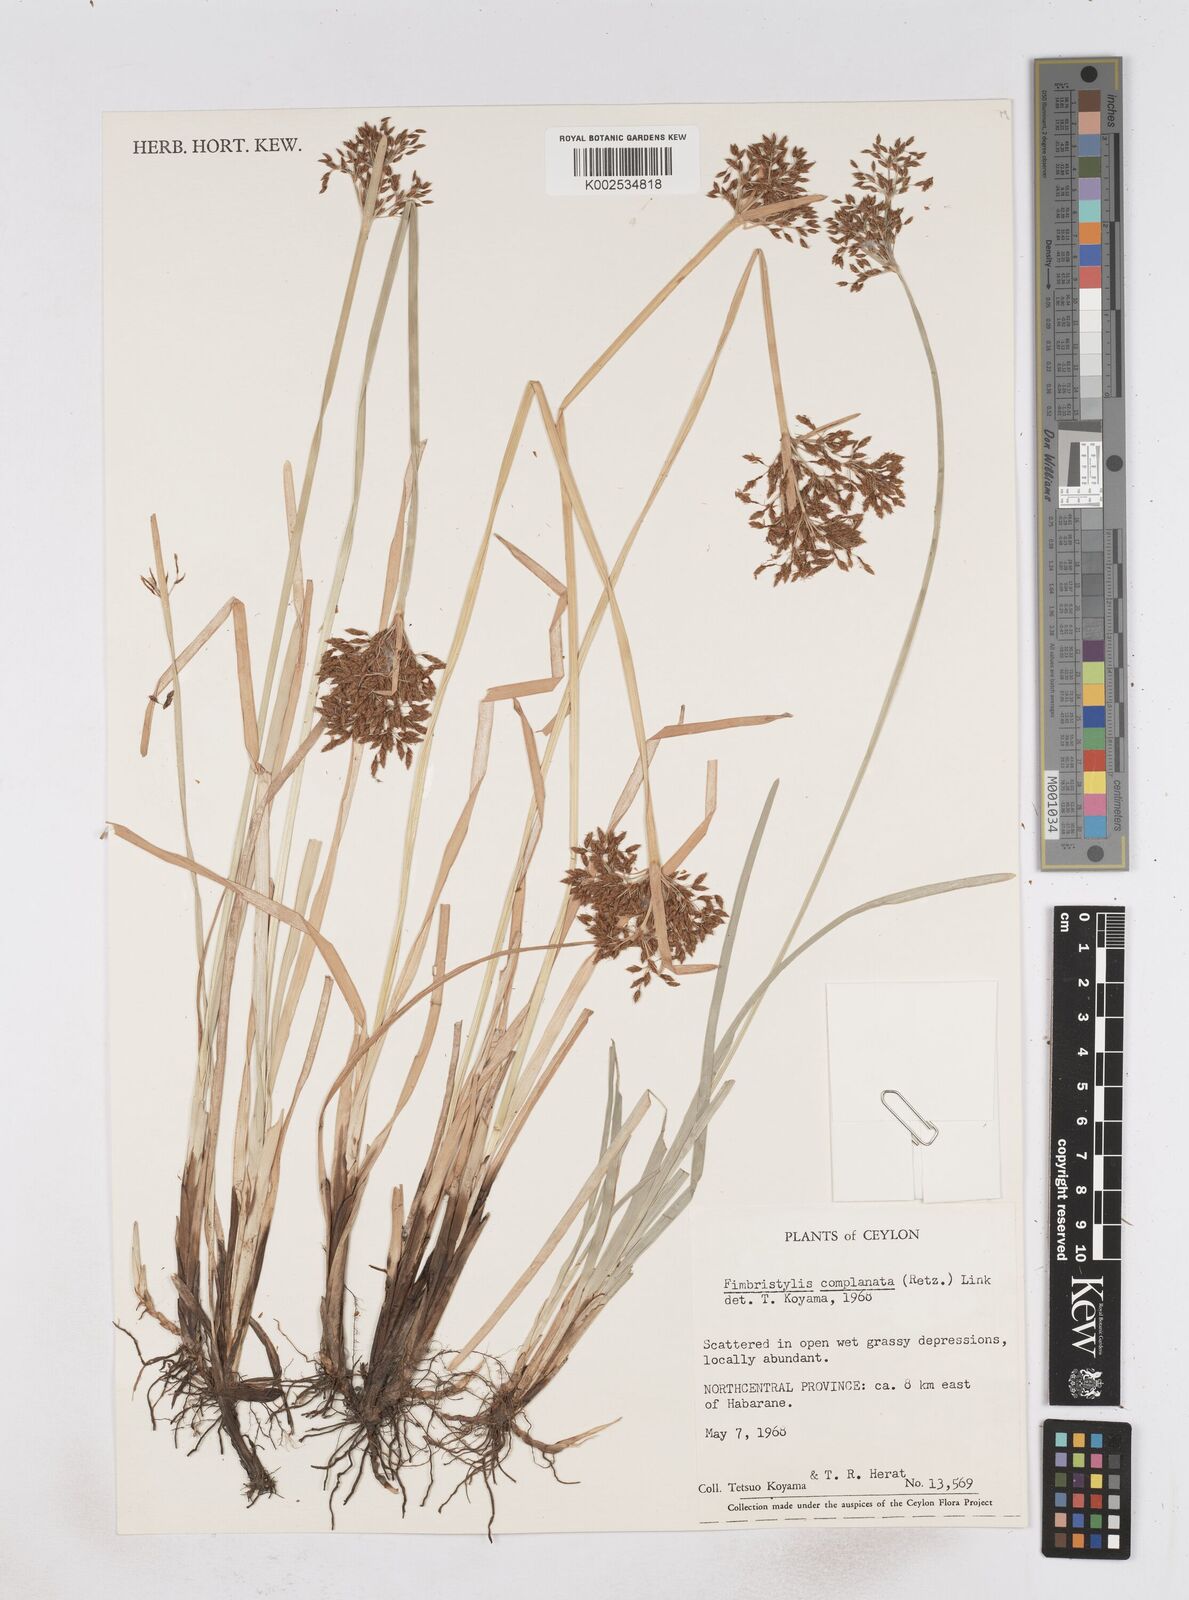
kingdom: Plantae
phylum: Tracheophyta
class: Liliopsida
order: Poales
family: Cyperaceae
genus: Fimbristylis
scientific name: Fimbristylis complanata
